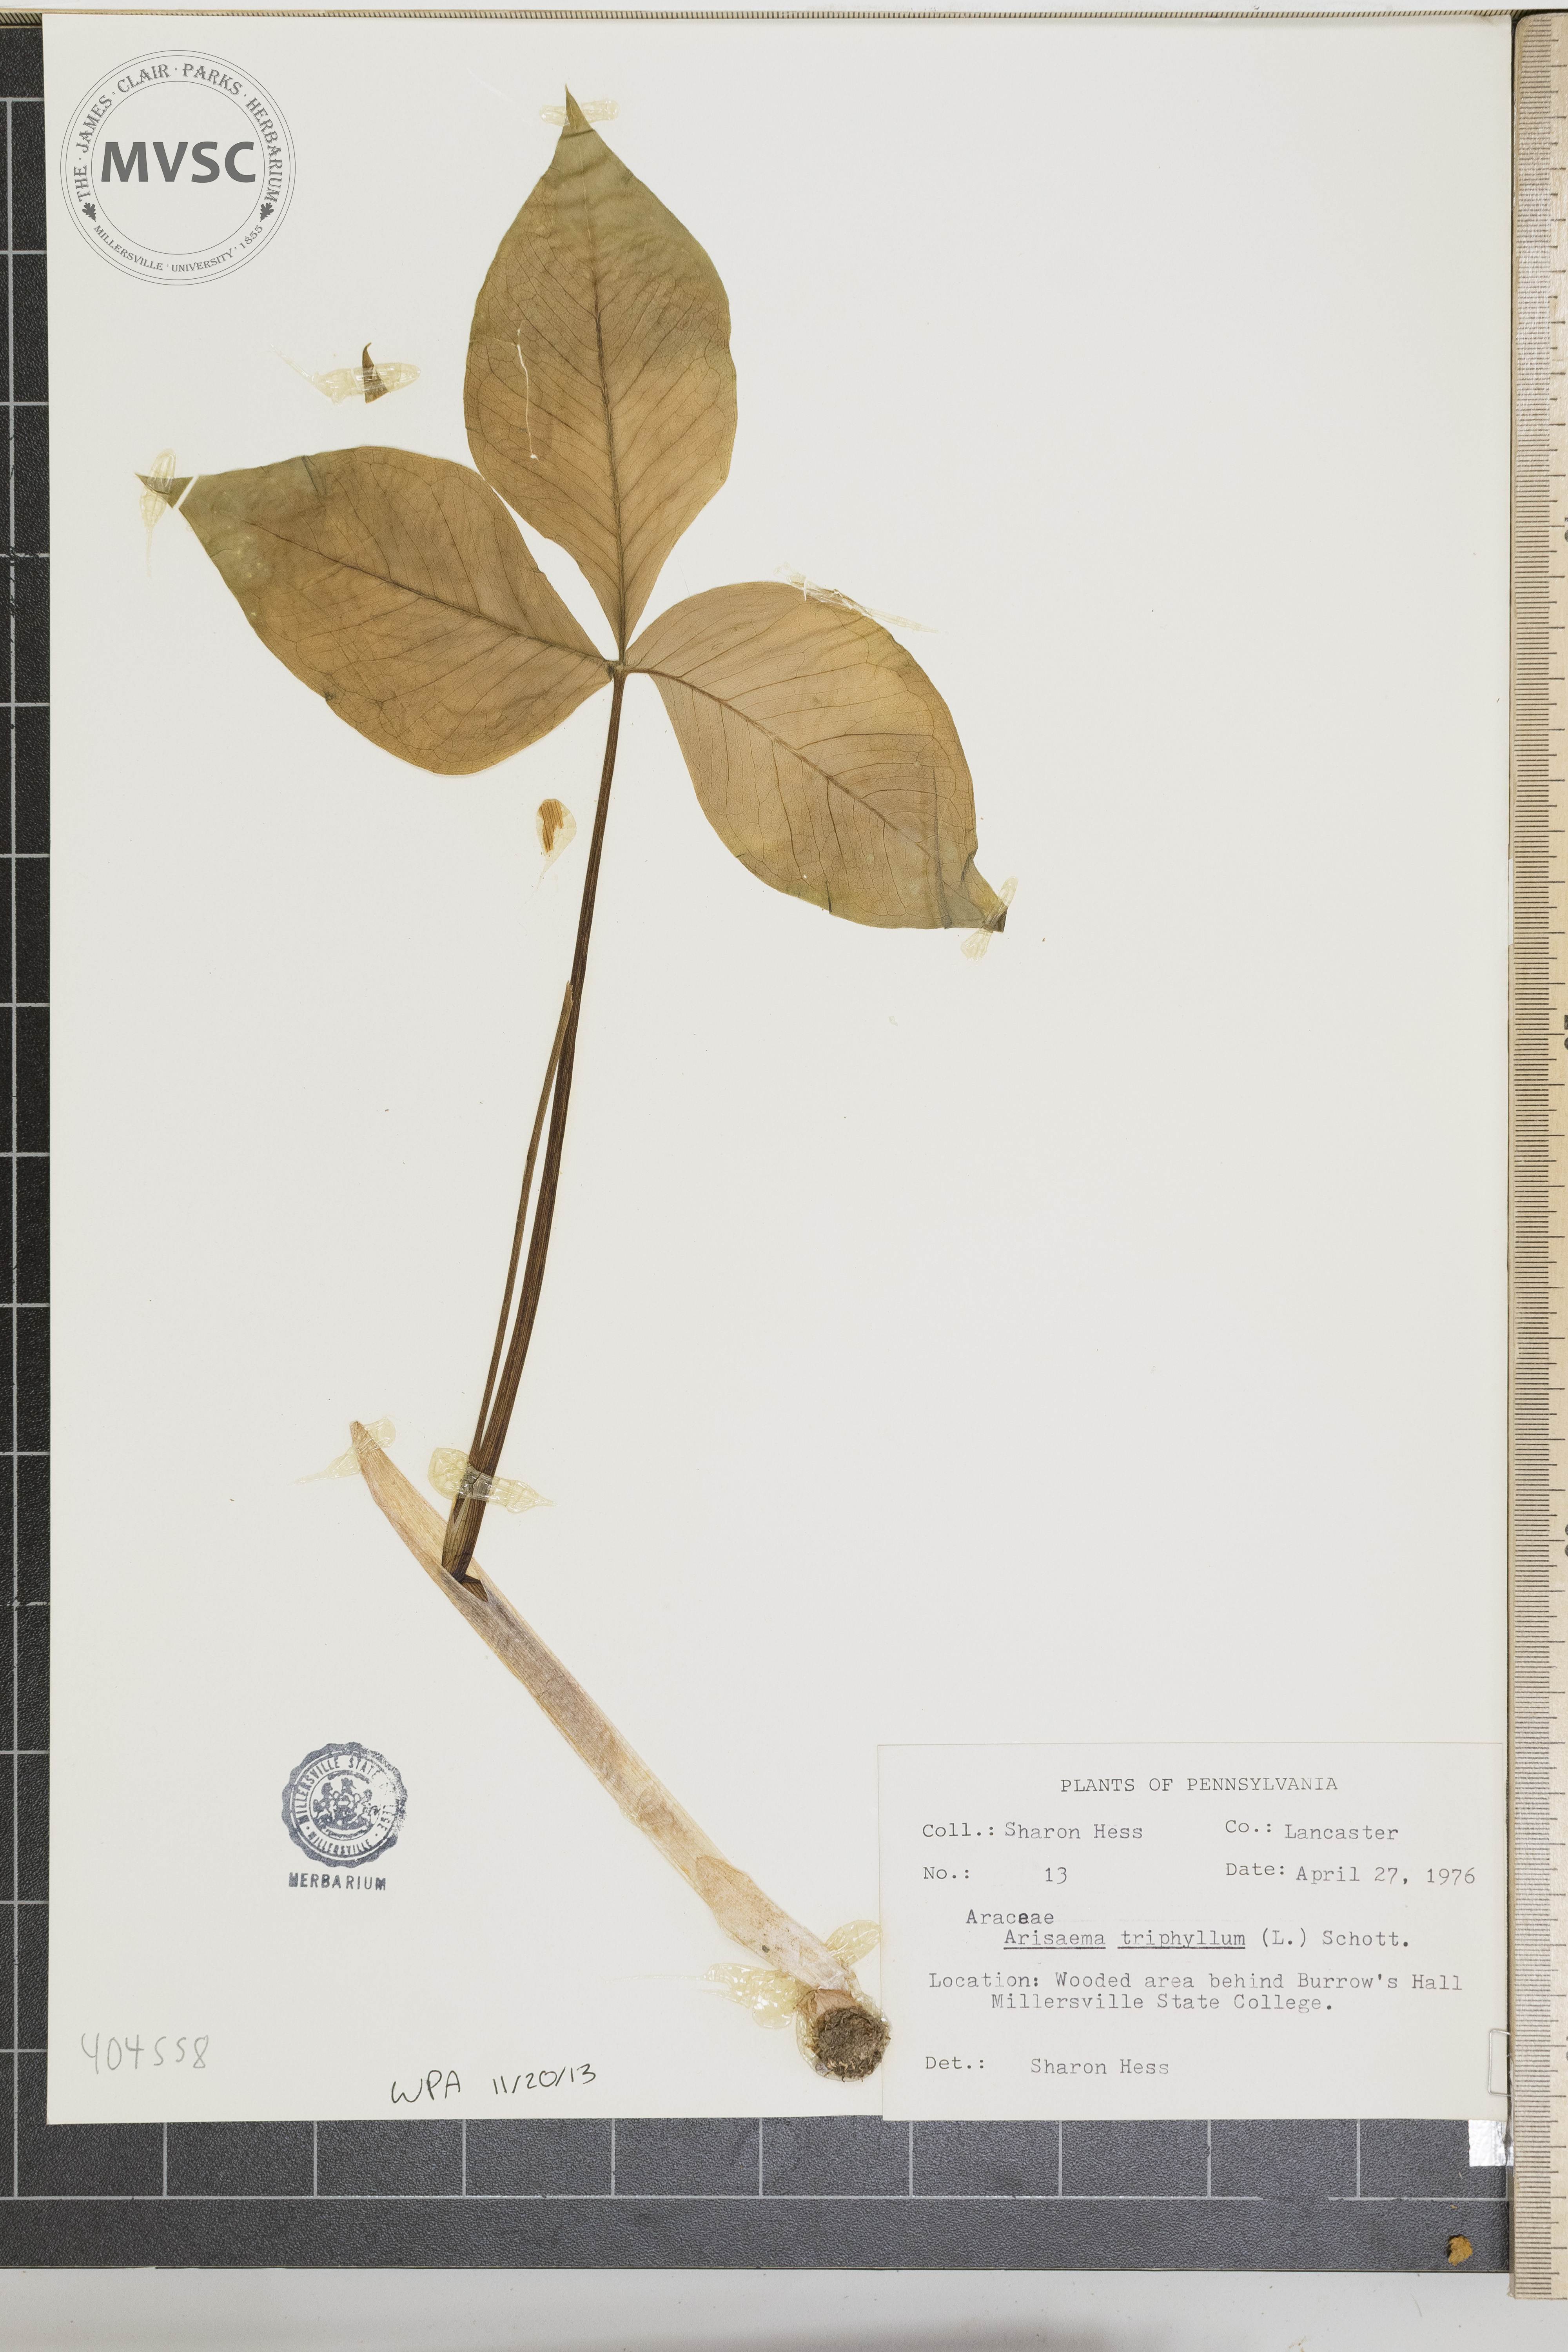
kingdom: Plantae
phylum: Tracheophyta
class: Liliopsida
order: Alismatales
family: Araceae
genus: Arisaema
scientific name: Arisaema triphyllum
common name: Jack-in-the-pulpit
